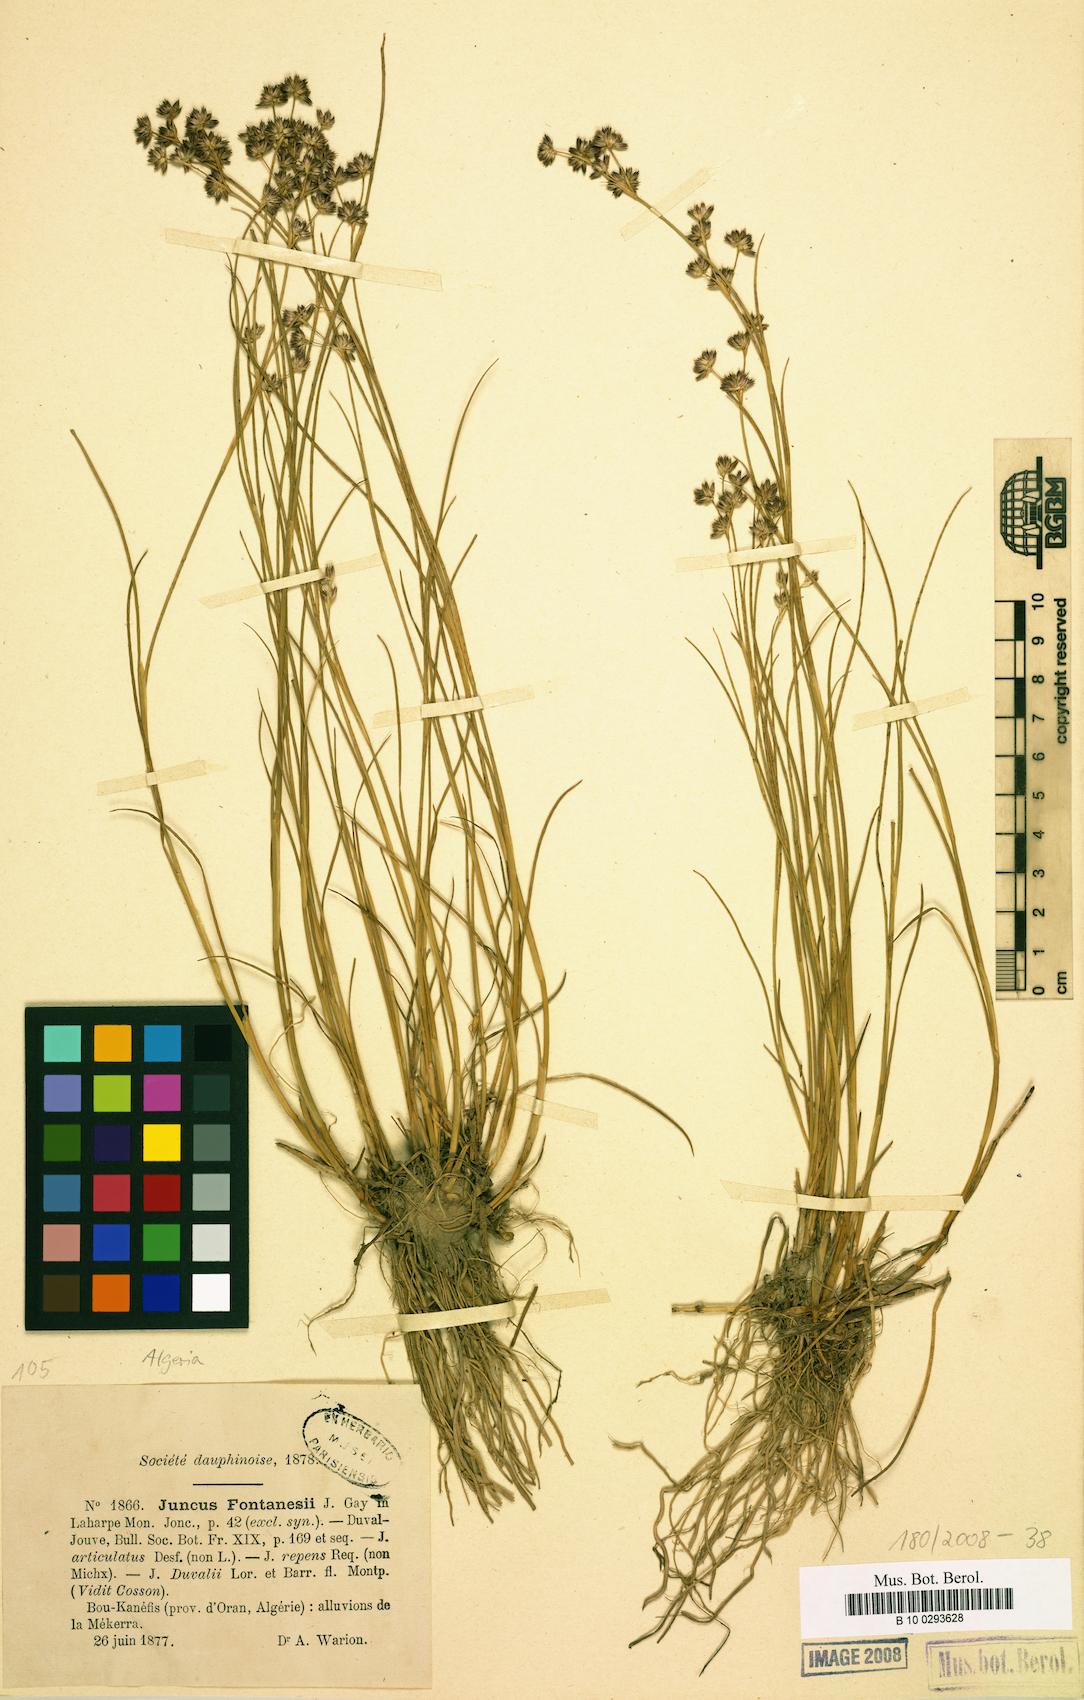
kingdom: Plantae
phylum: Tracheophyta
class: Liliopsida
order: Poales
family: Juncaceae
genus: Juncus
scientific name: Juncus fontanesii
